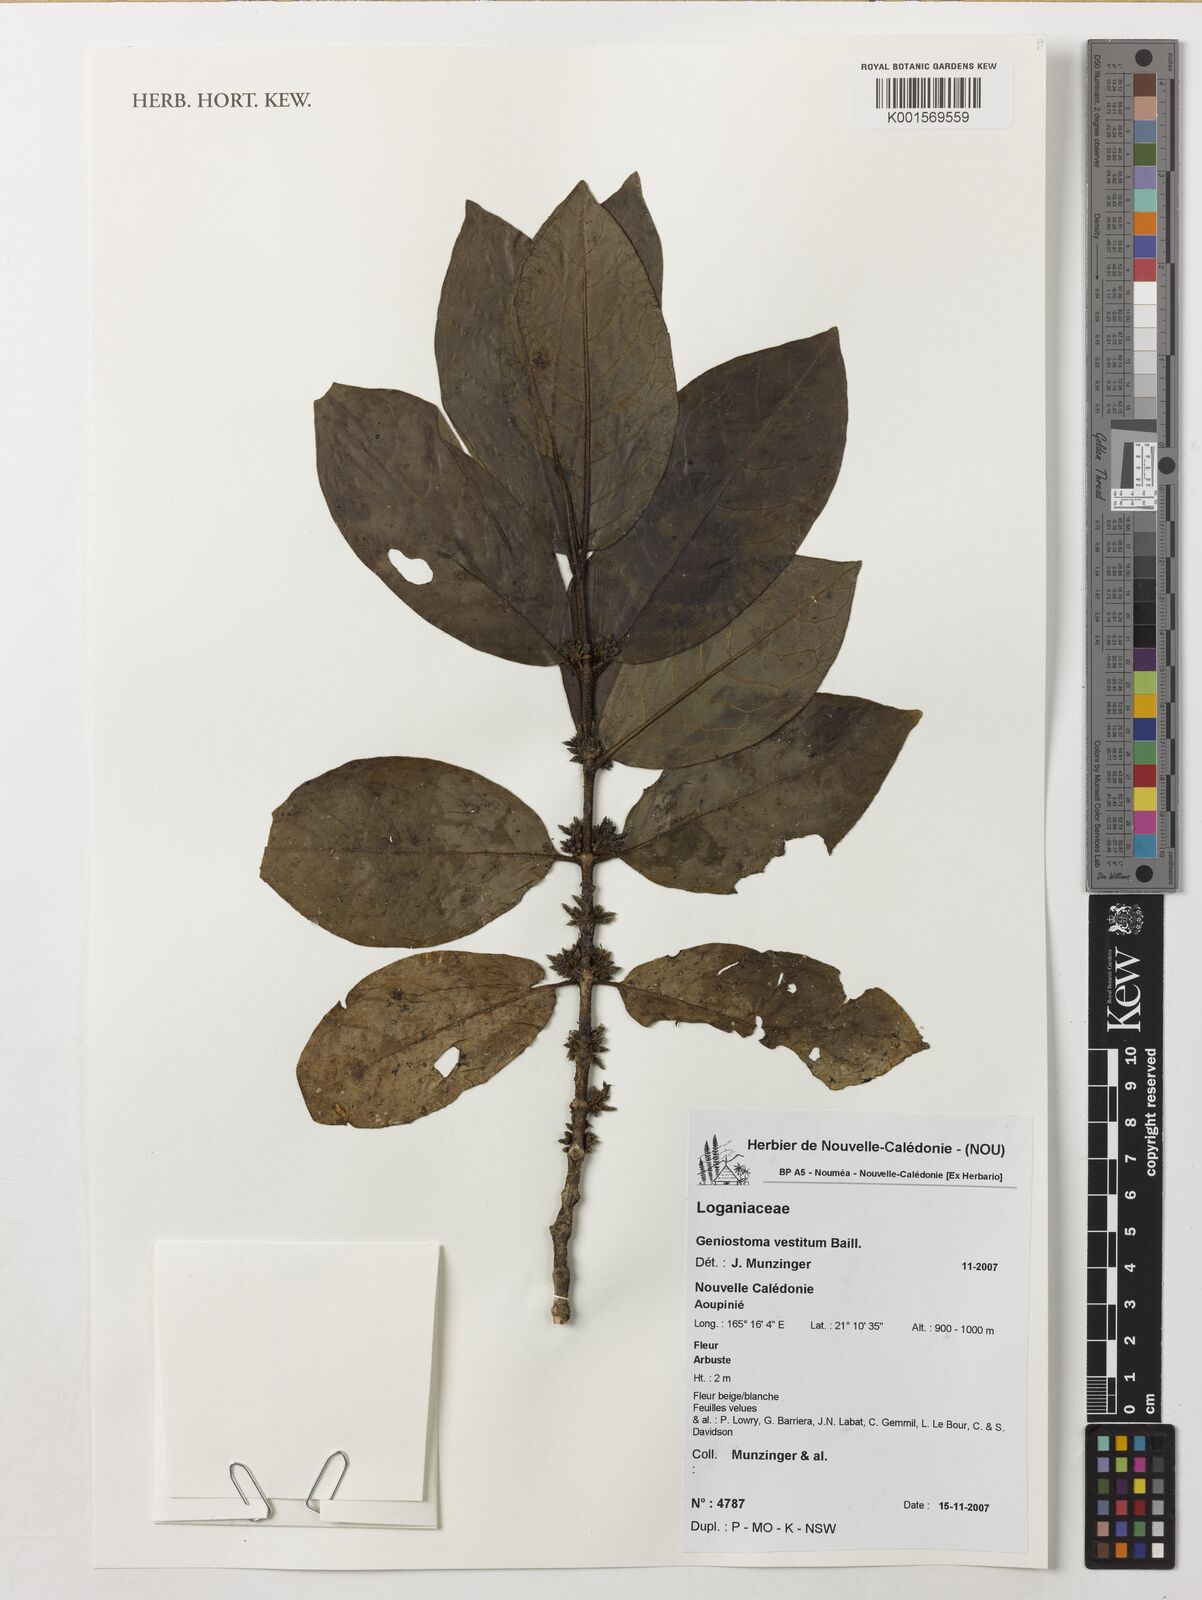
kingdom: Plantae
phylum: Tracheophyta
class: Magnoliopsida
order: Gentianales
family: Loganiaceae
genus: Geniostoma
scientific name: Geniostoma vestitum
